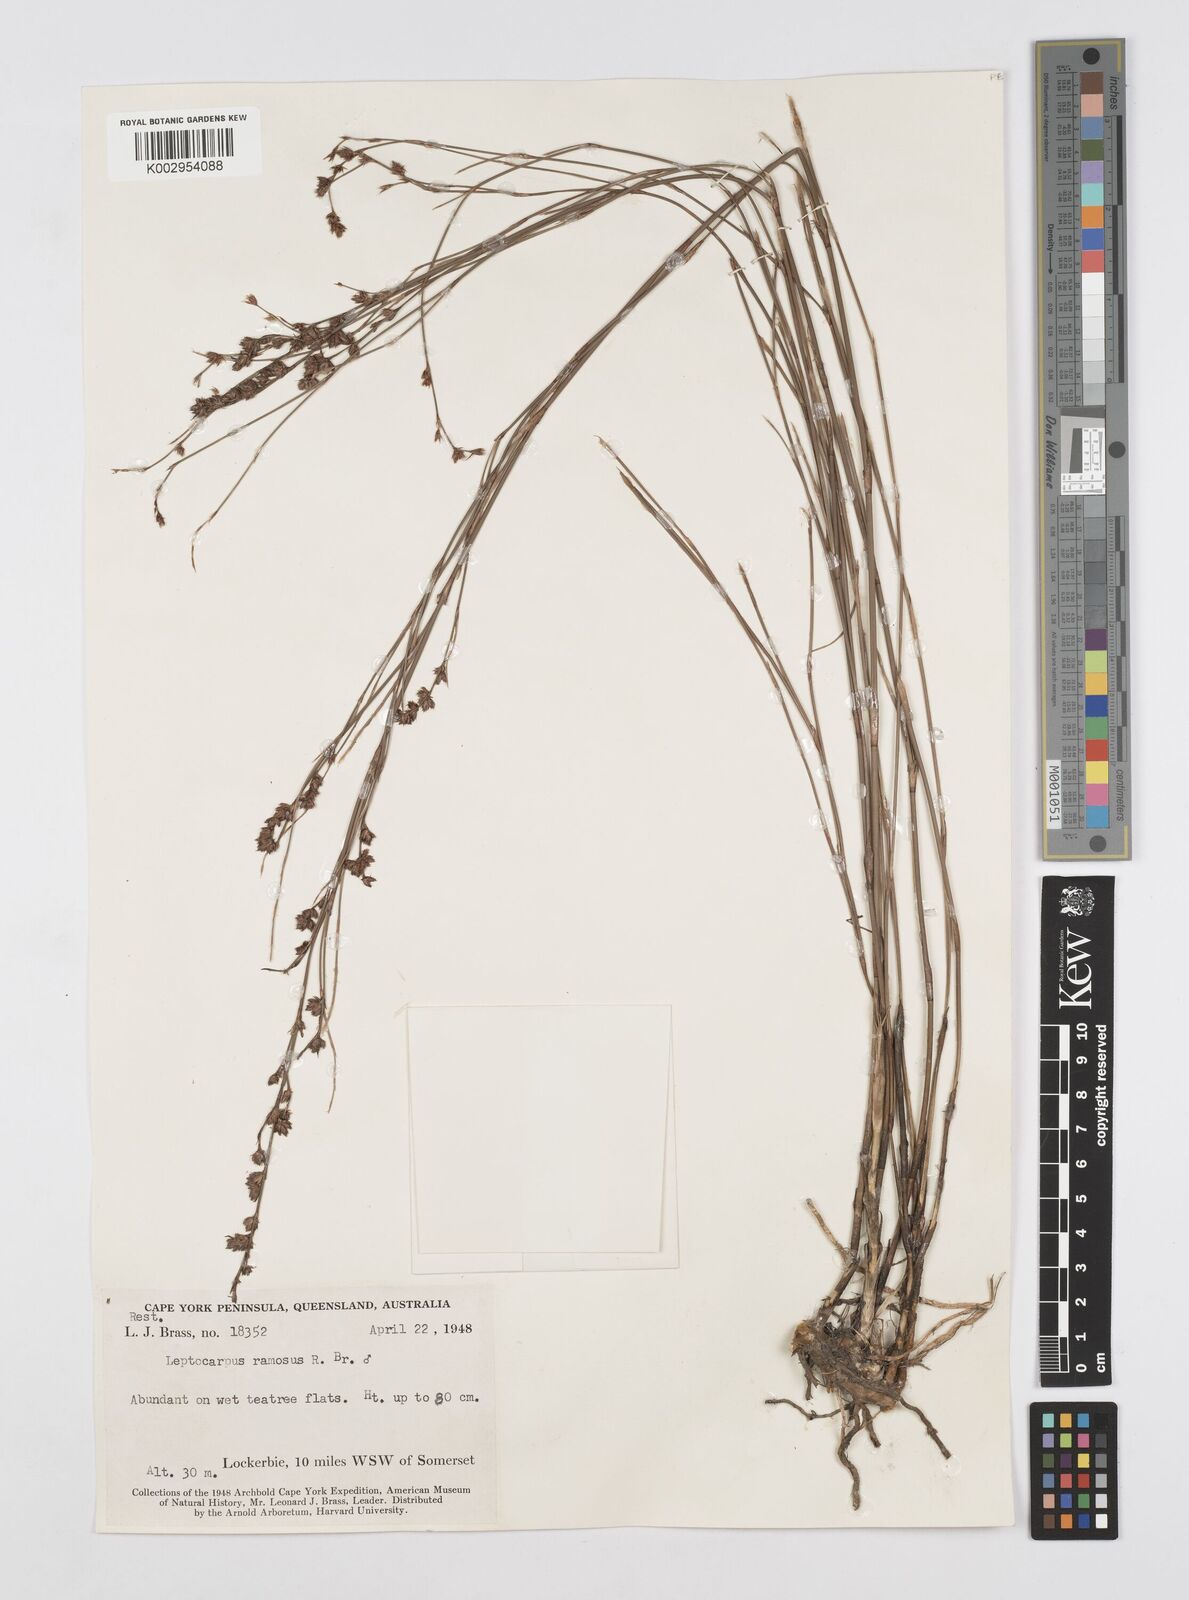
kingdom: Plantae
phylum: Tracheophyta
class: Liliopsida
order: Poales
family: Restionaceae
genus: Dapsilanthus
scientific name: Dapsilanthus ramosus
